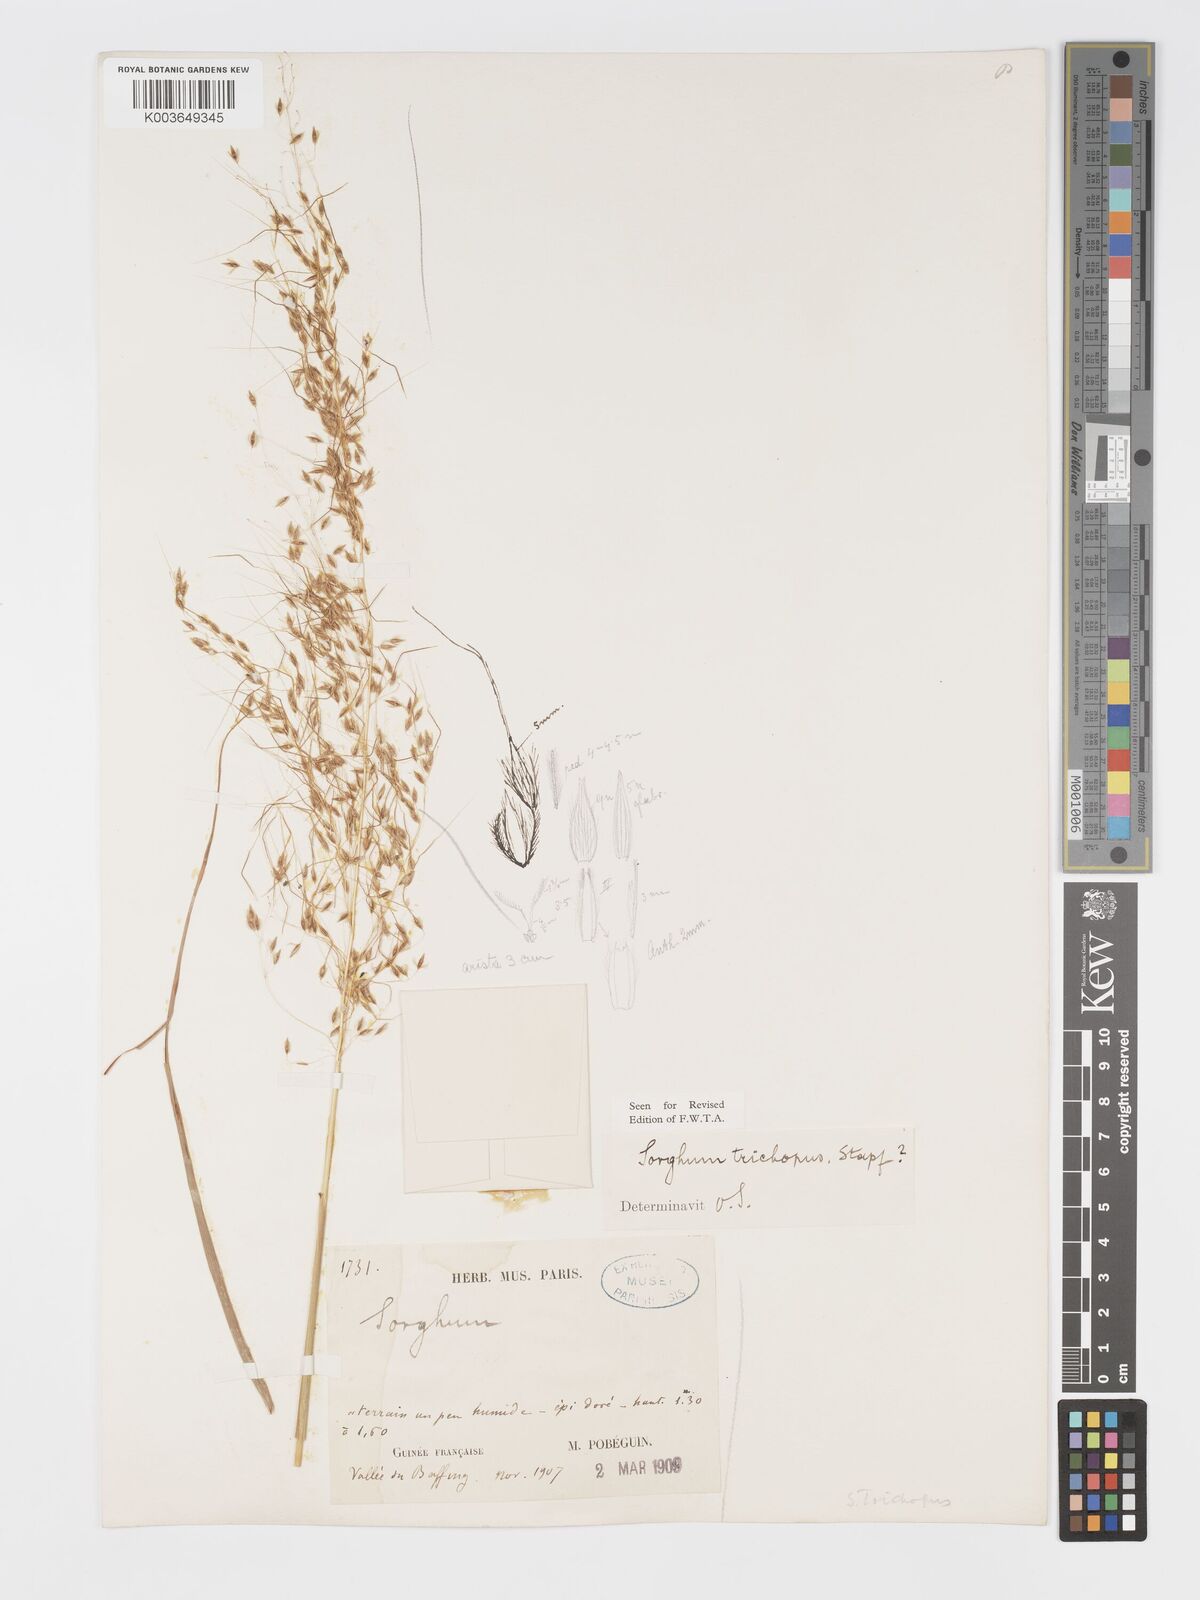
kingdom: Plantae
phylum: Tracheophyta
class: Liliopsida
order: Poales
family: Poaceae
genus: Sorghastrum
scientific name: Sorghastrum stipoides
